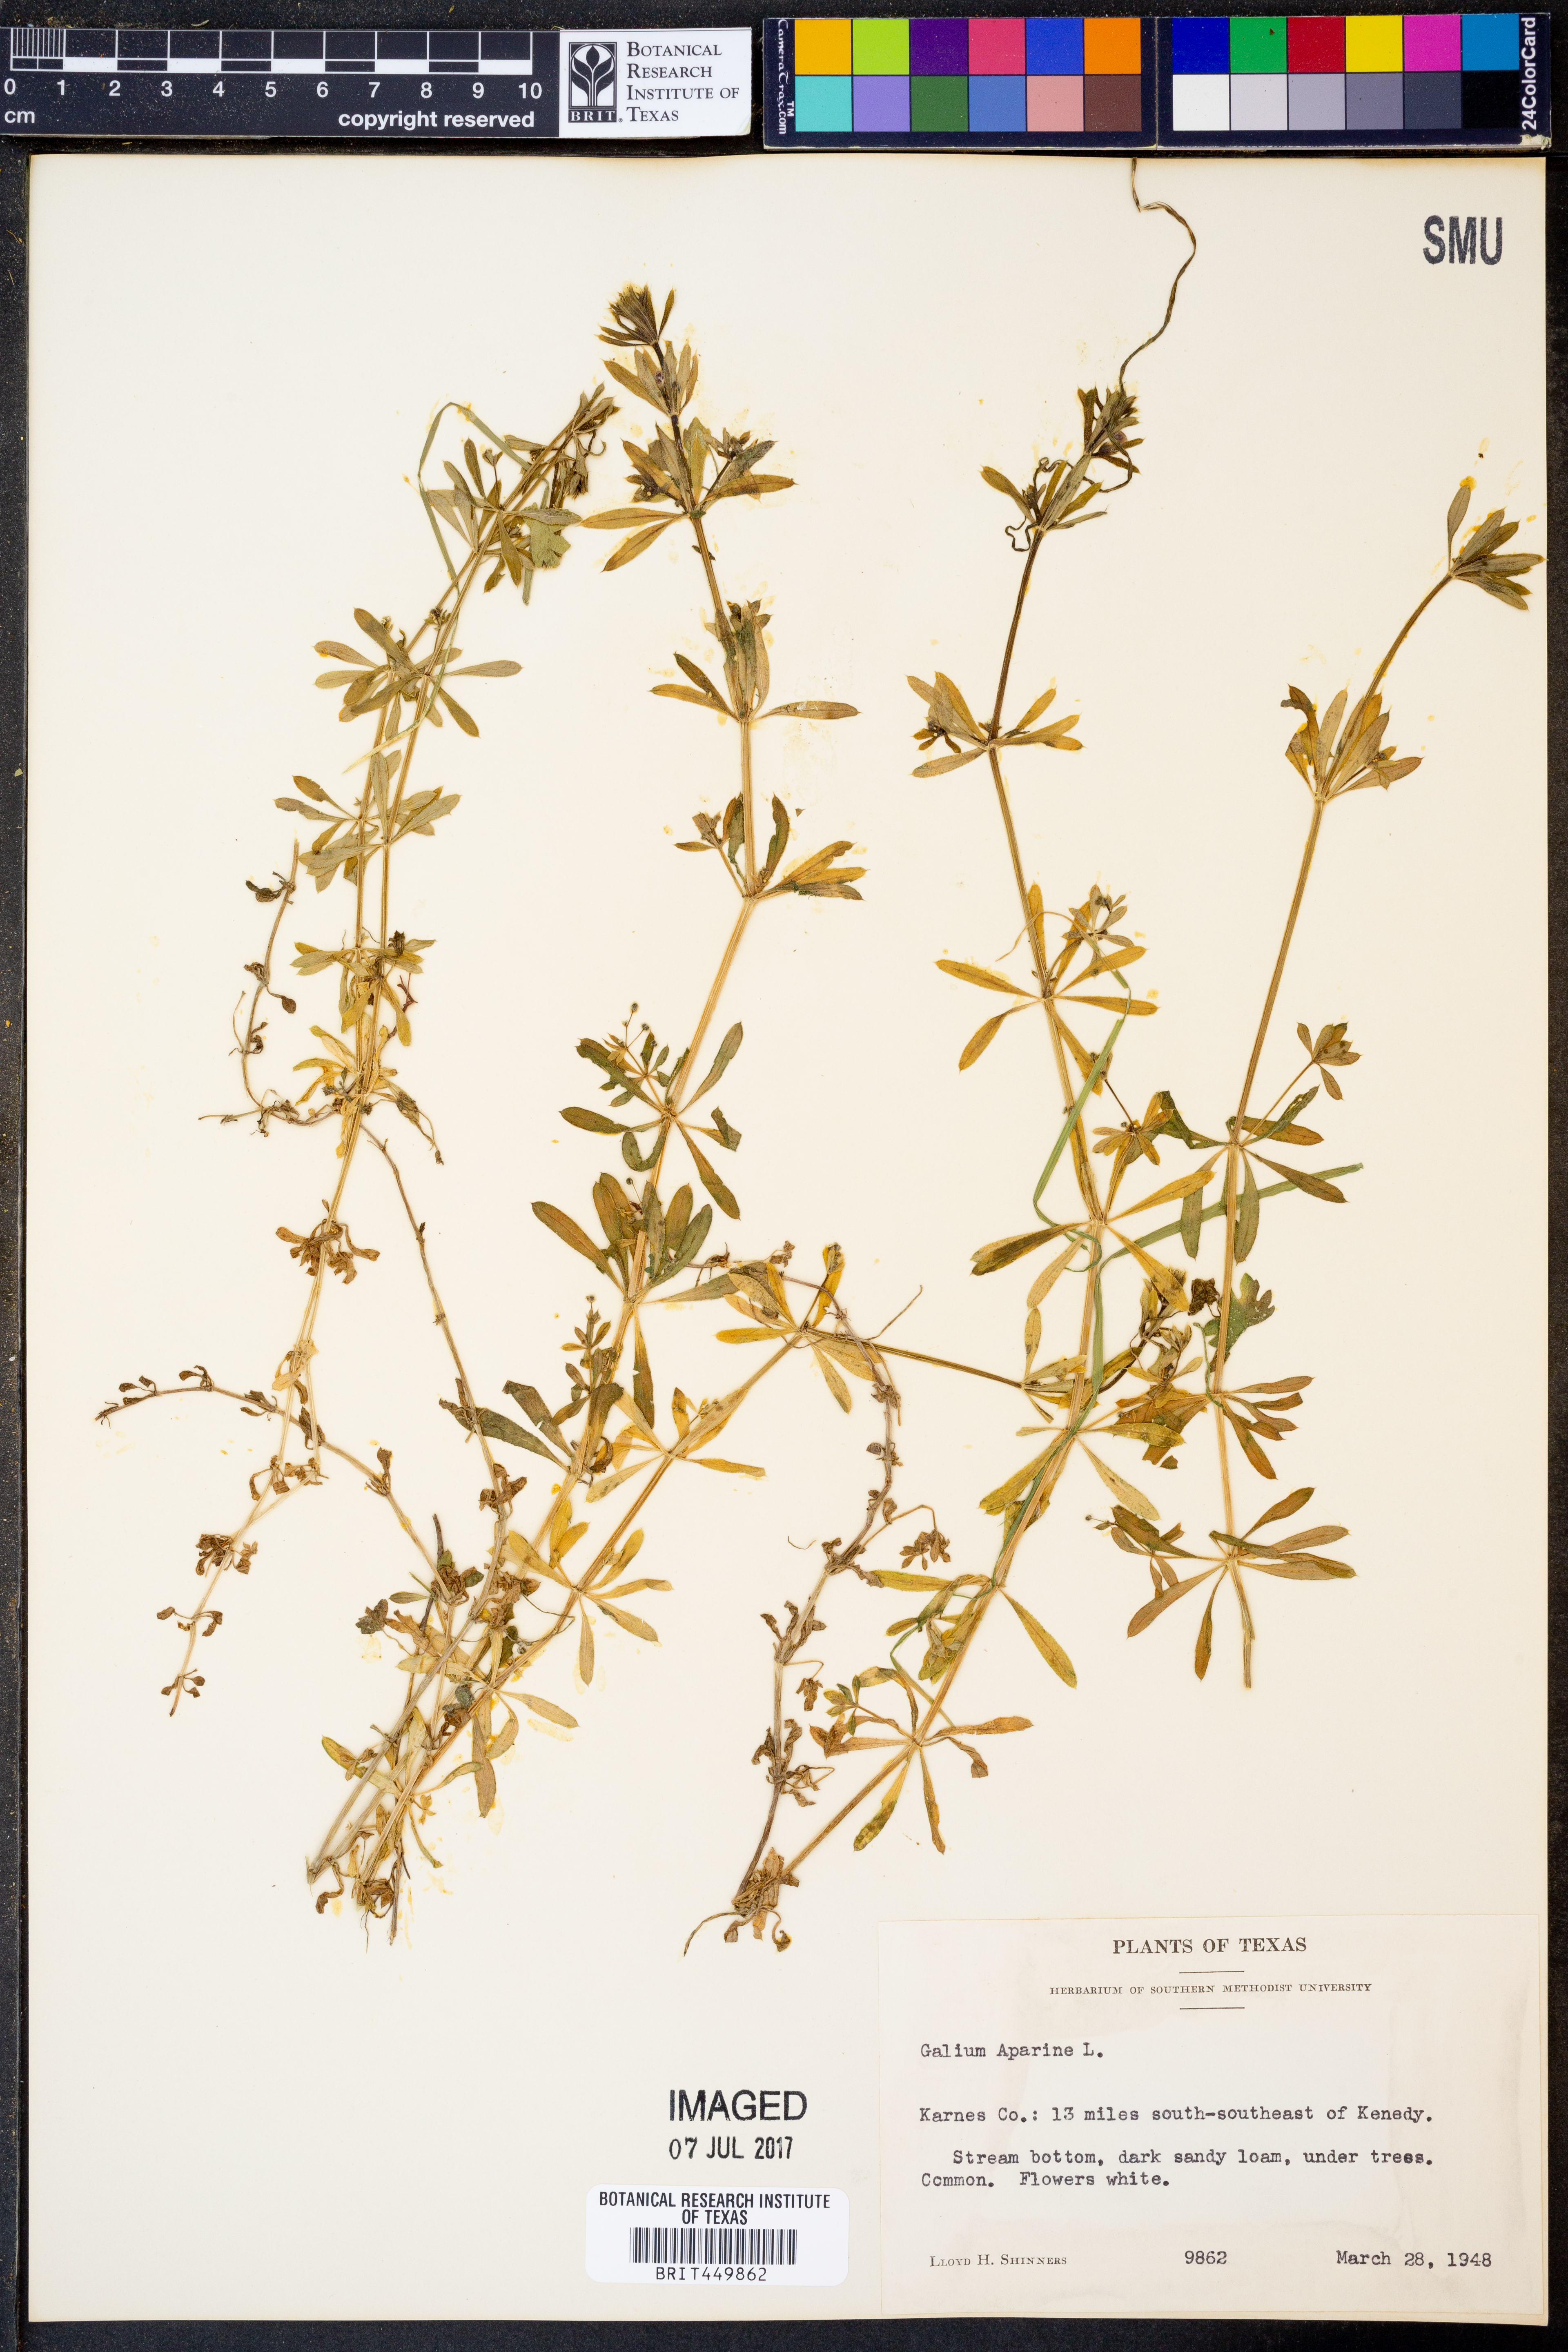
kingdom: Plantae
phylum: Tracheophyta
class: Magnoliopsida
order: Gentianales
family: Rubiaceae
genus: Galium
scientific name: Galium aparine
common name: Cleavers
